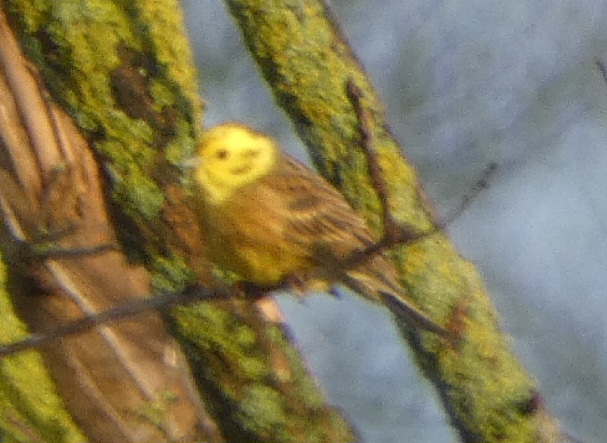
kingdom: Animalia
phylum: Chordata
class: Aves
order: Passeriformes
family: Emberizidae
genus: Emberiza
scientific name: Emberiza citrinella
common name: Gulspurv
